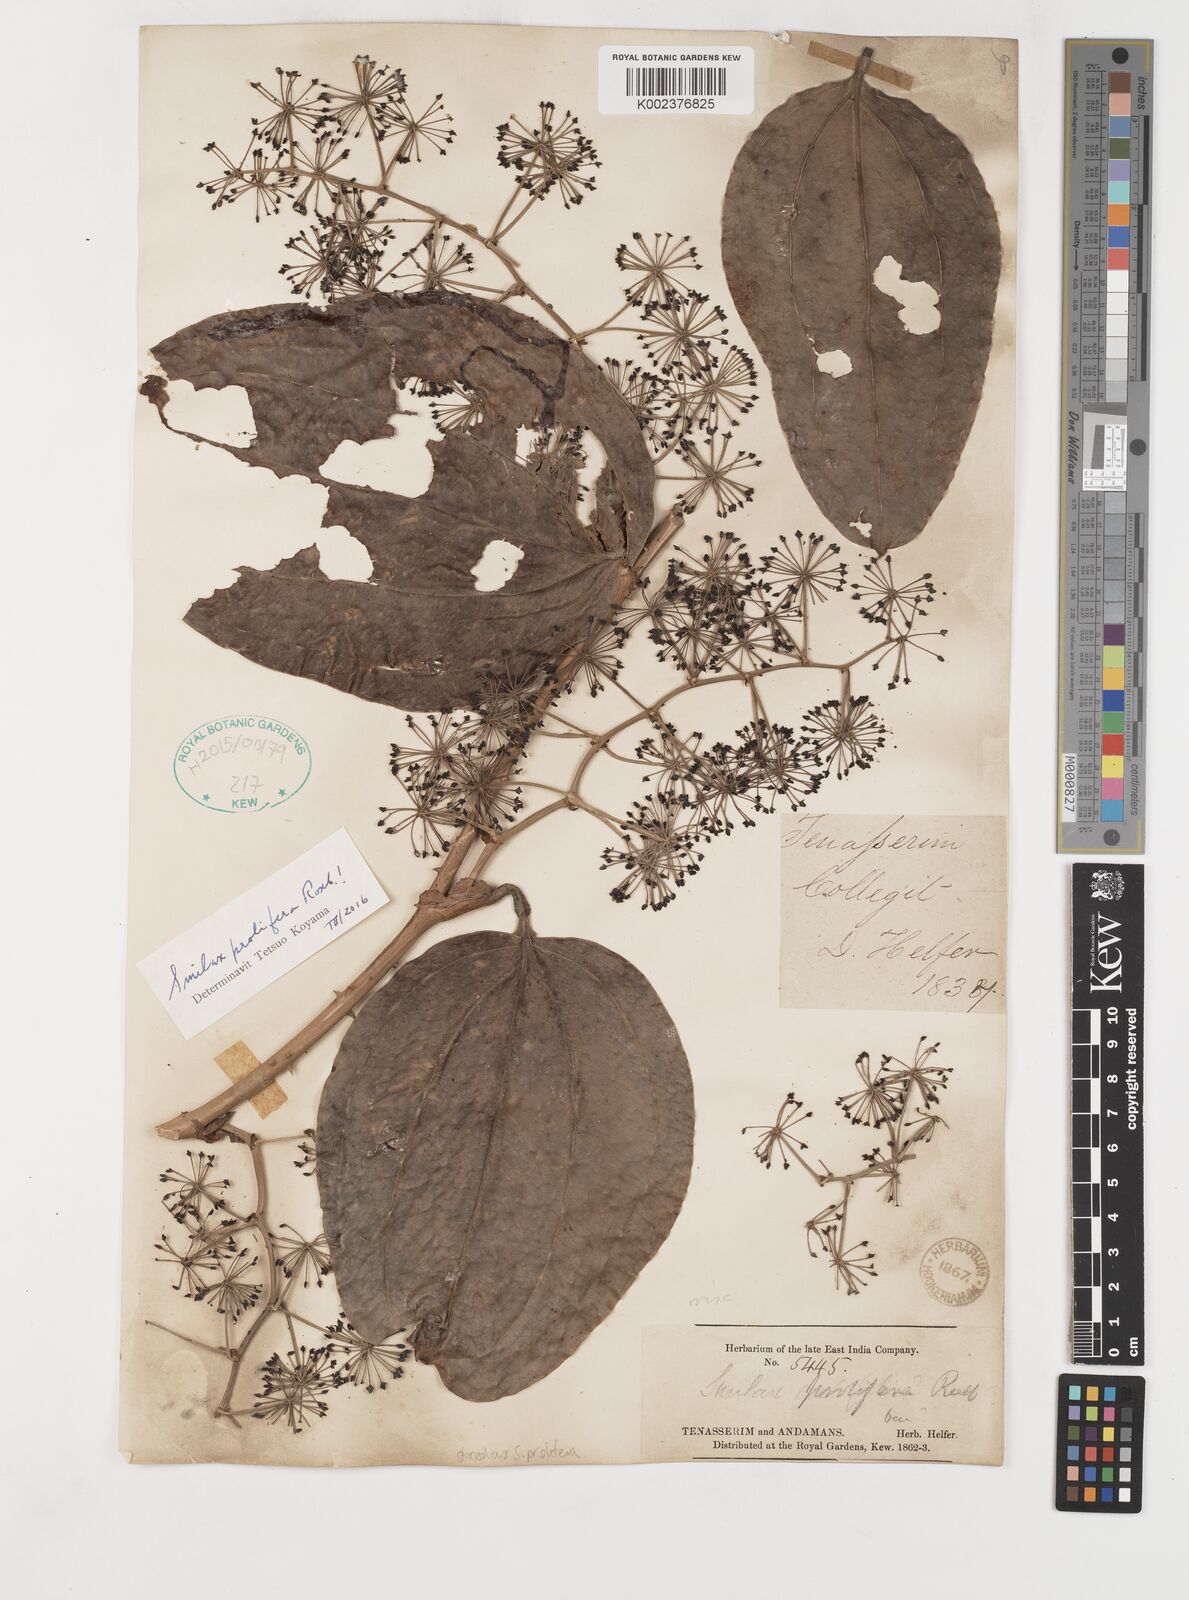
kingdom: Plantae
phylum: Tracheophyta
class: Liliopsida
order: Liliales
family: Smilacaceae
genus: Smilax
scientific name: Smilax prolifera
